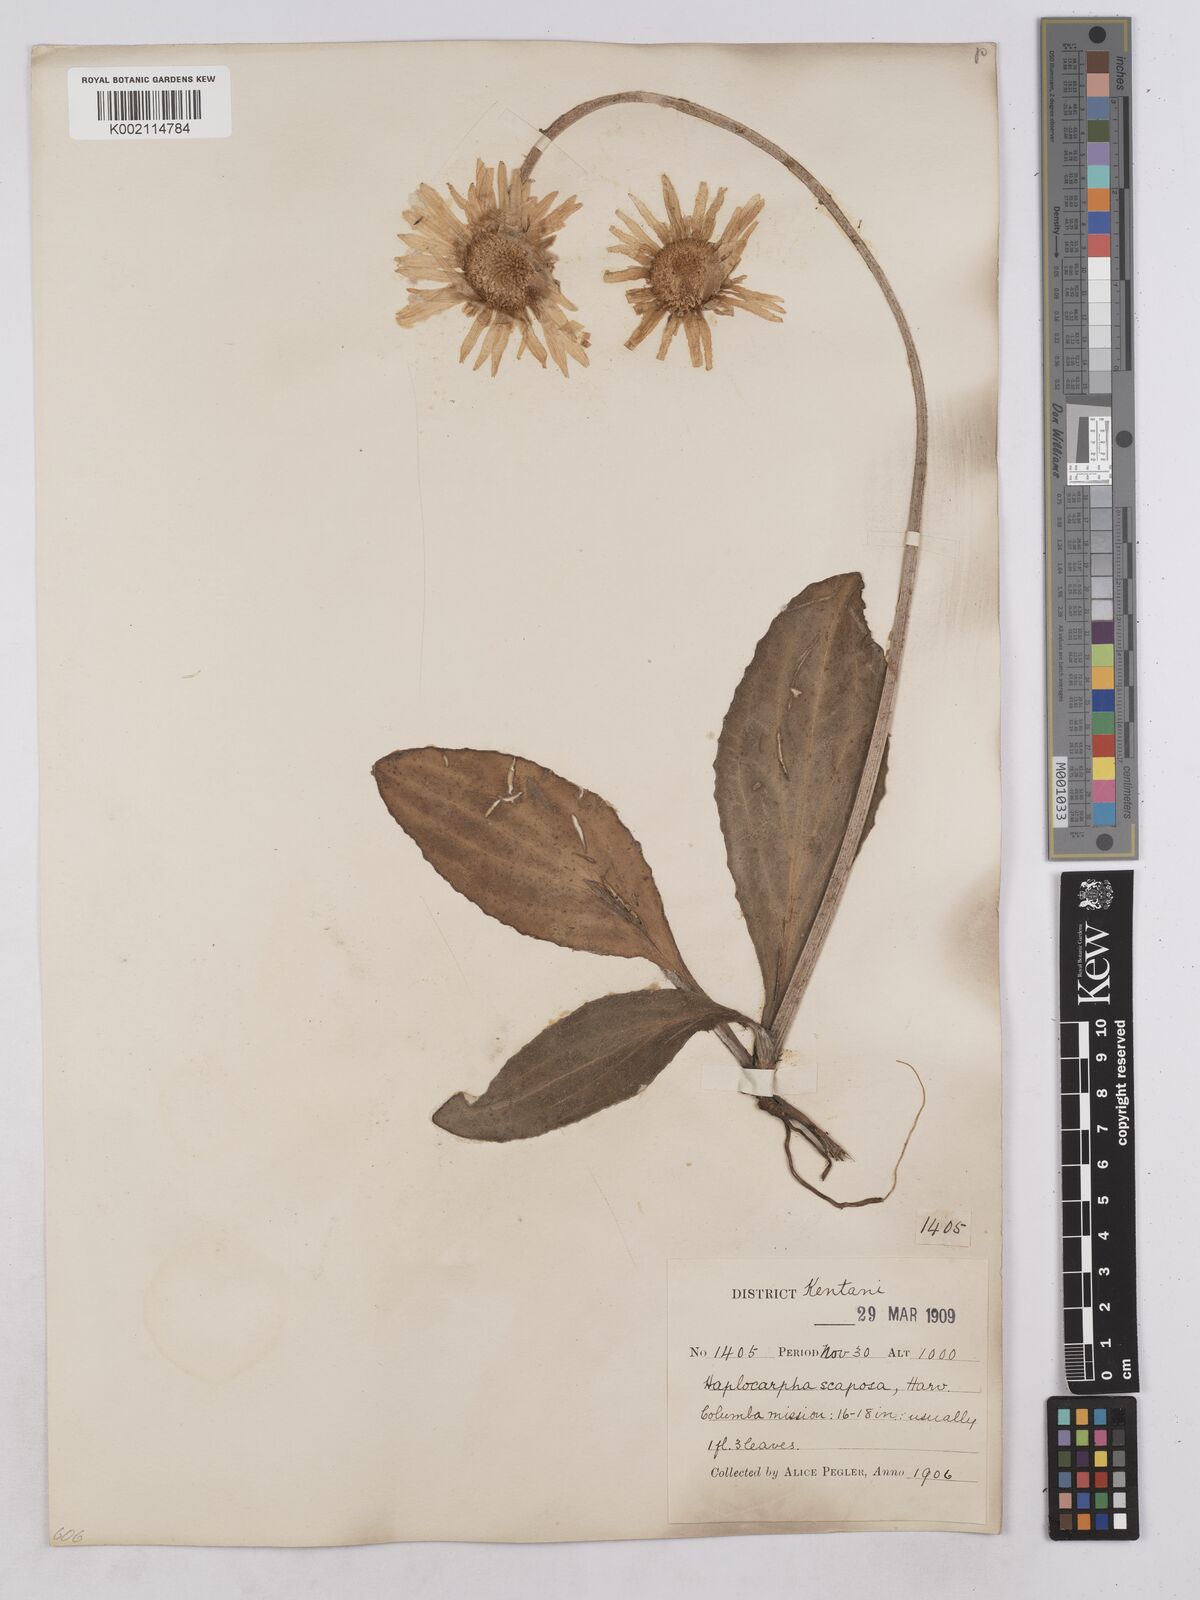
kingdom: Plantae
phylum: Tracheophyta
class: Magnoliopsida
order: Asterales
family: Asteraceae
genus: Haplocarpha
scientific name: Haplocarpha scaposa
